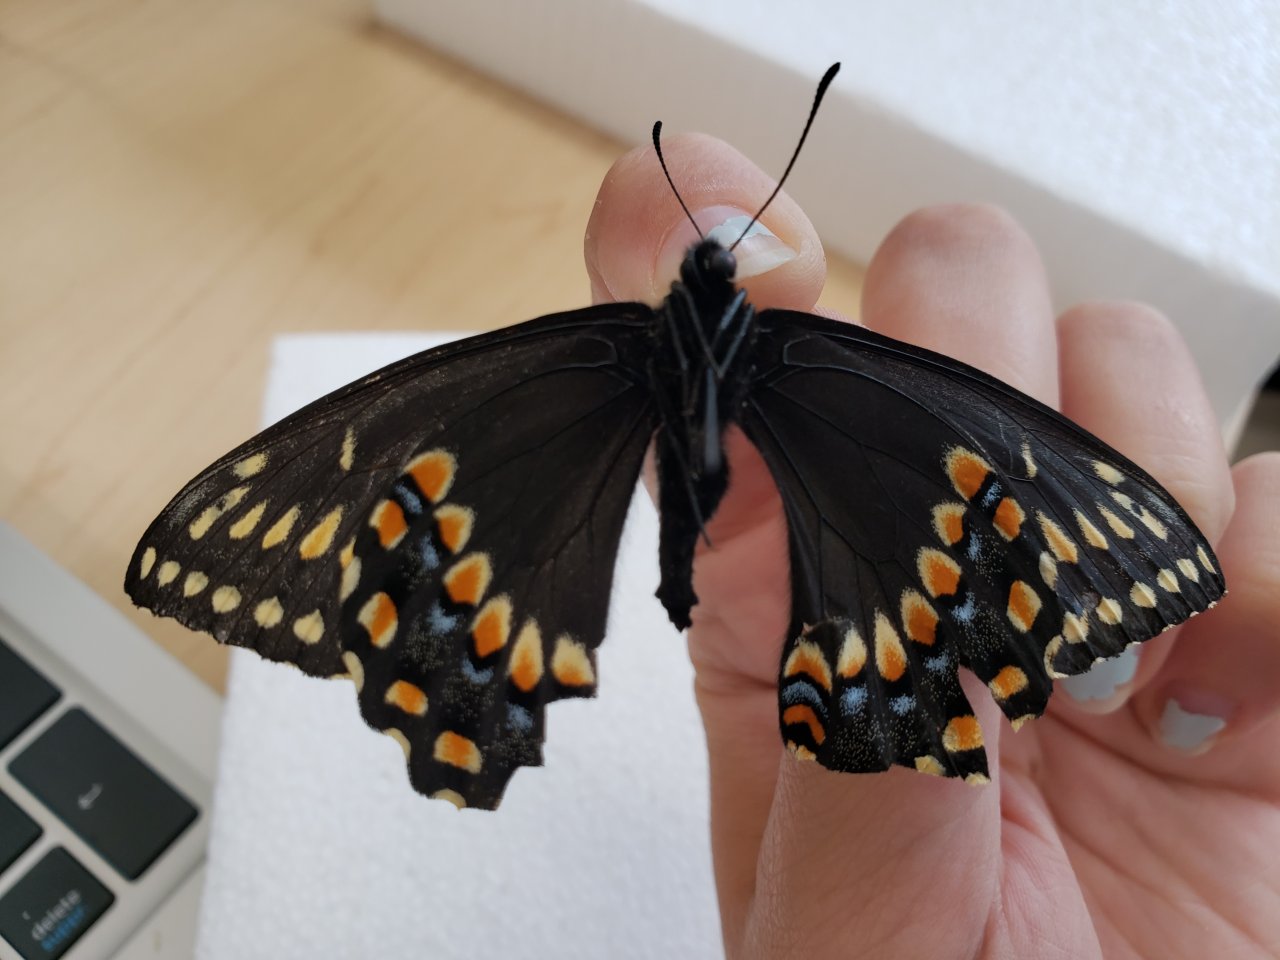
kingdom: Animalia
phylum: Arthropoda
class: Insecta
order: Lepidoptera
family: Papilionidae
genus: Papilio
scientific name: Papilio brevicauda
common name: Short-tailed Swallowtail
